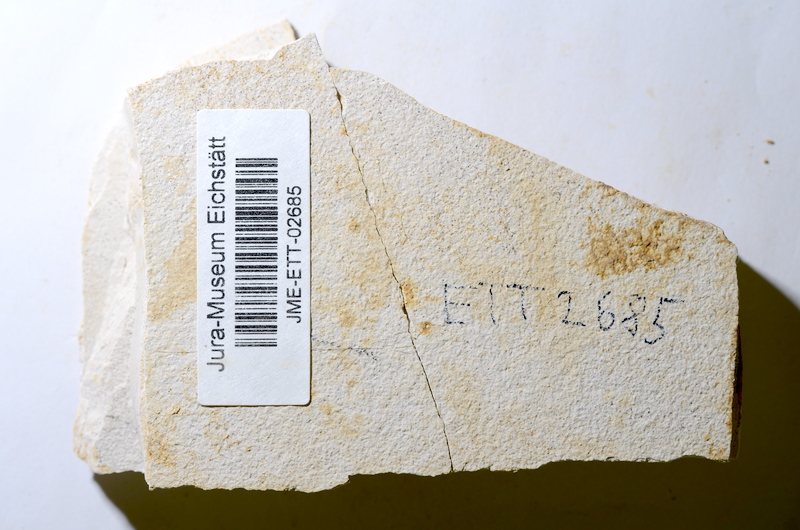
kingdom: Animalia
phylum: Chordata
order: Salmoniformes
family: Orthogonikleithridae
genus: Orthogonikleithrus
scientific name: Orthogonikleithrus hoelli
